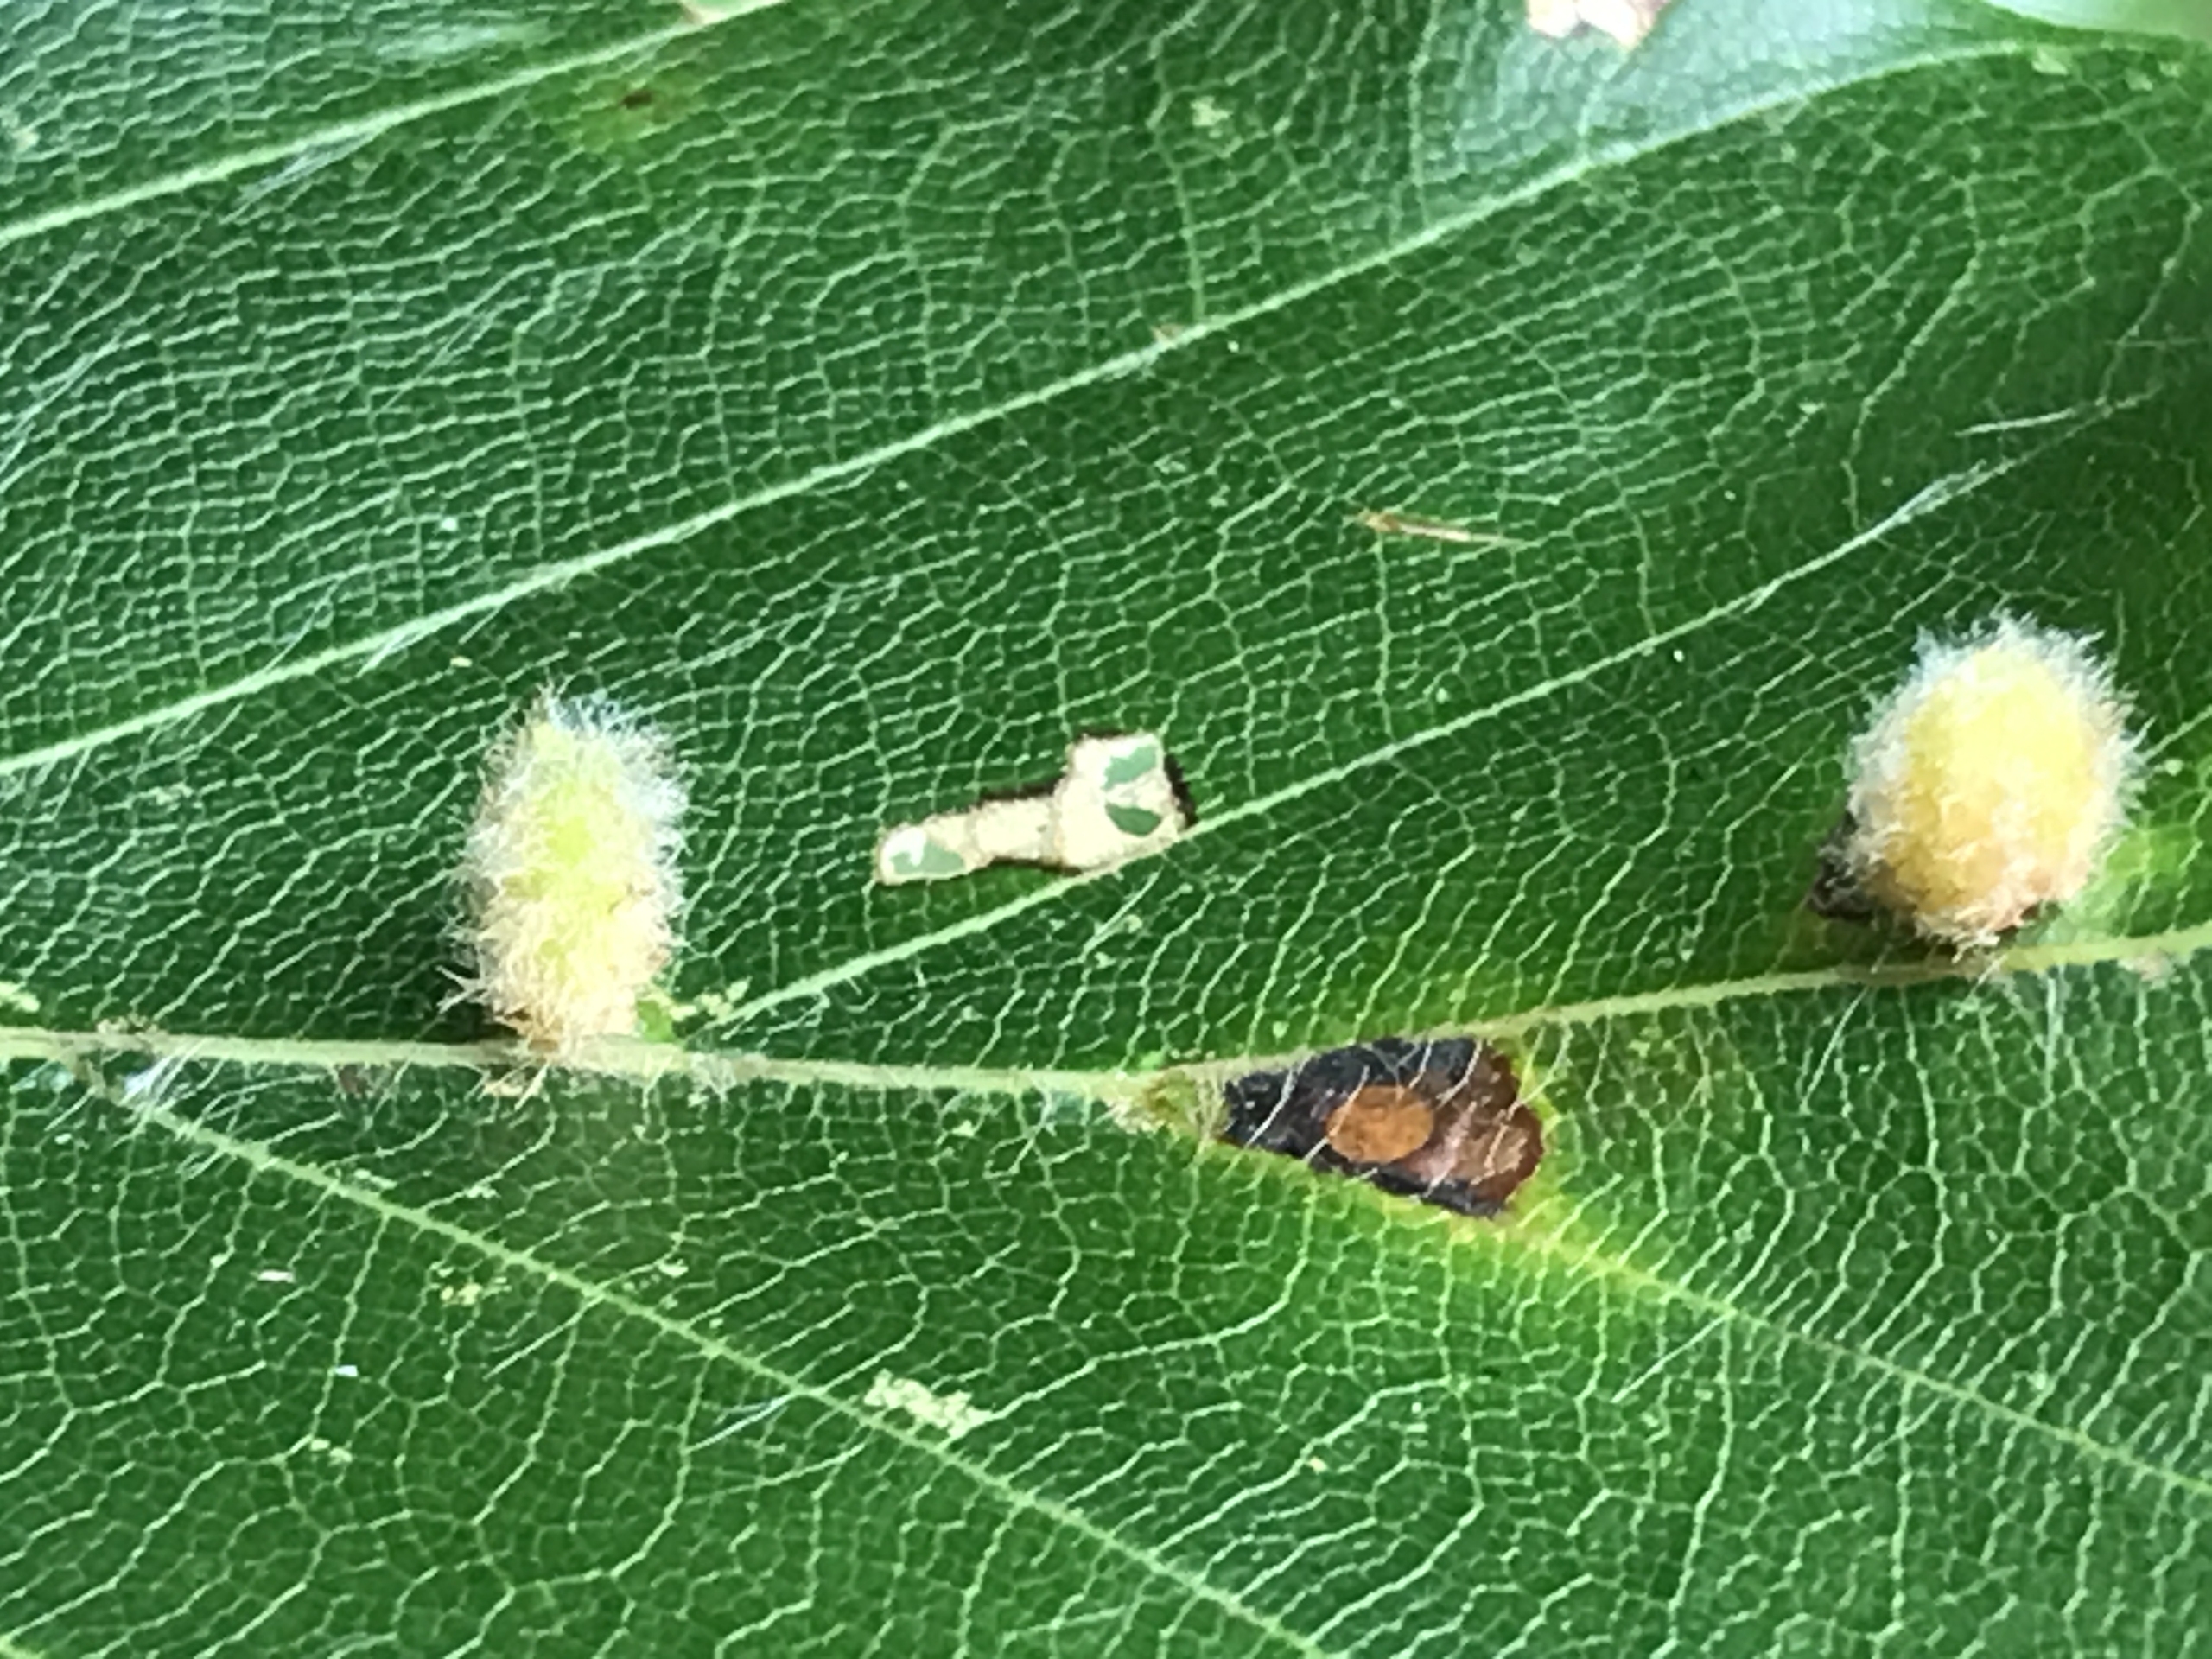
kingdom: Animalia
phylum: Arthropoda
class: Insecta
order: Diptera
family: Cecidomyiidae
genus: Hartigiola
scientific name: Hartigiola annulipes
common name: Skovtroldegalmyg
